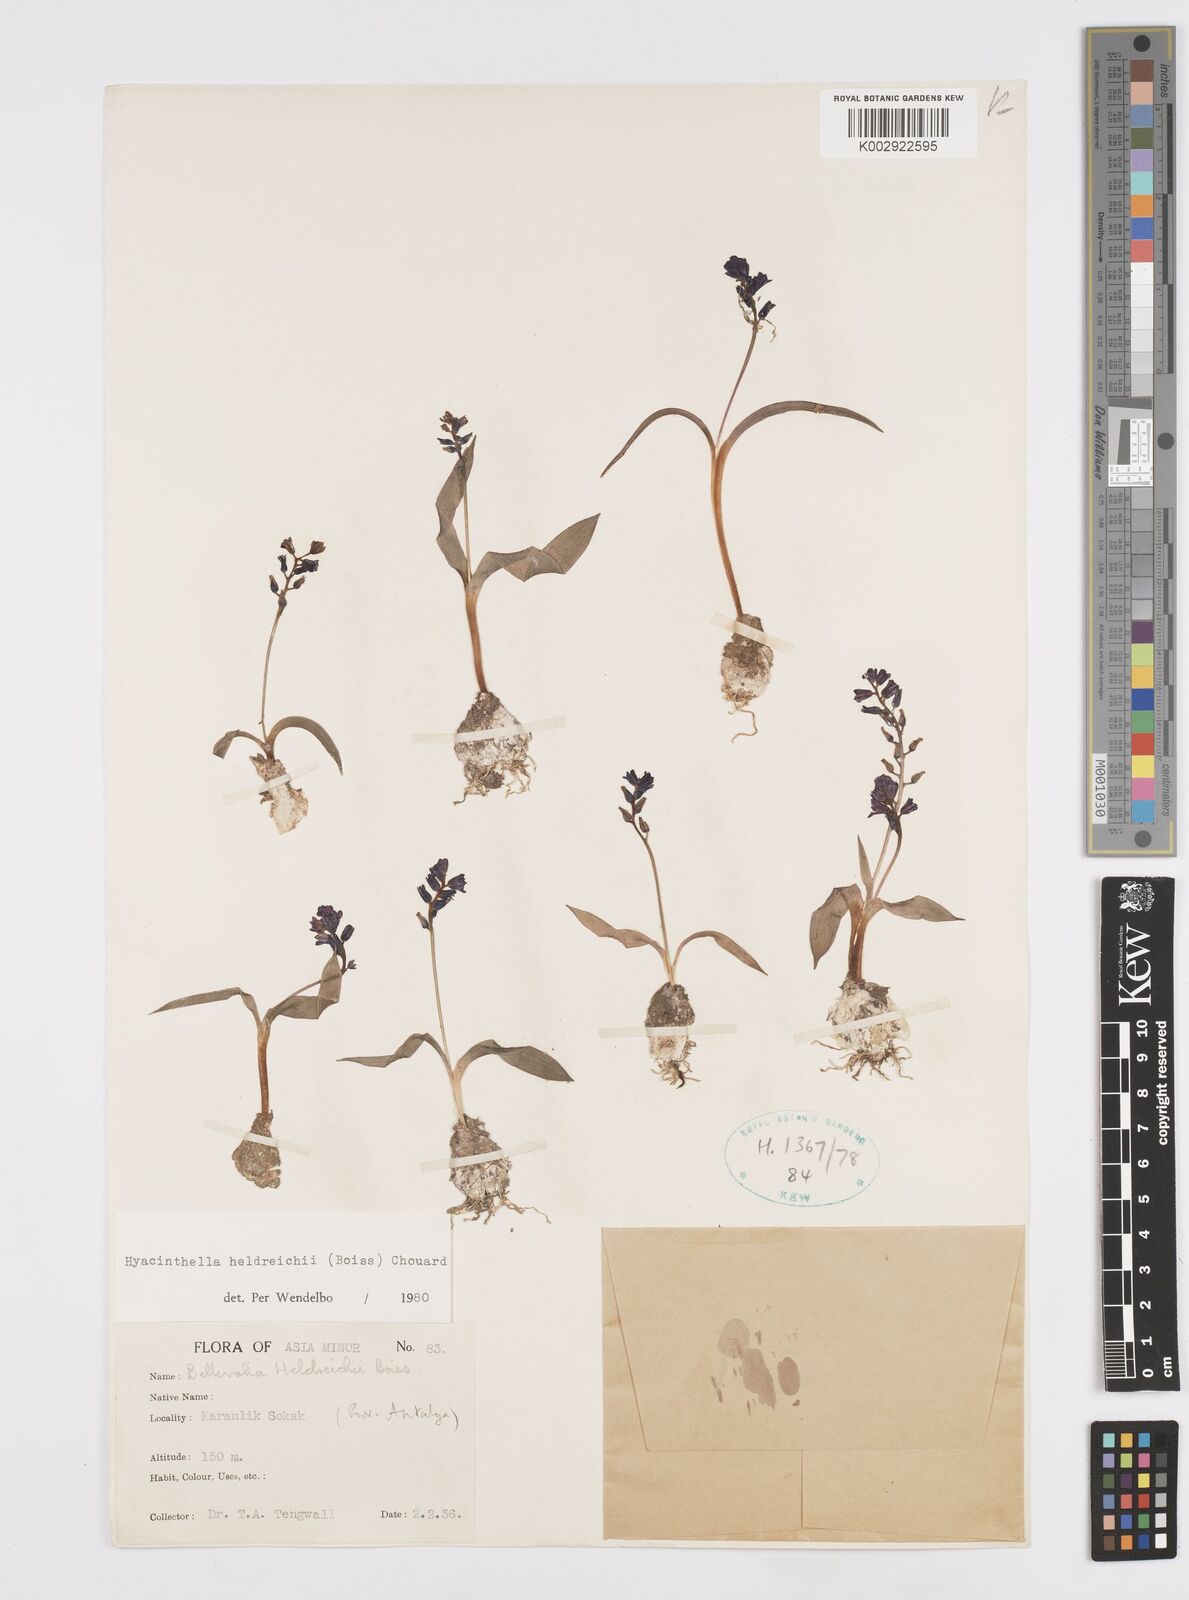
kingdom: Plantae
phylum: Tracheophyta
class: Liliopsida
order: Asparagales
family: Asparagaceae
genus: Hyacinthella
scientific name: Hyacinthella heldreichii
